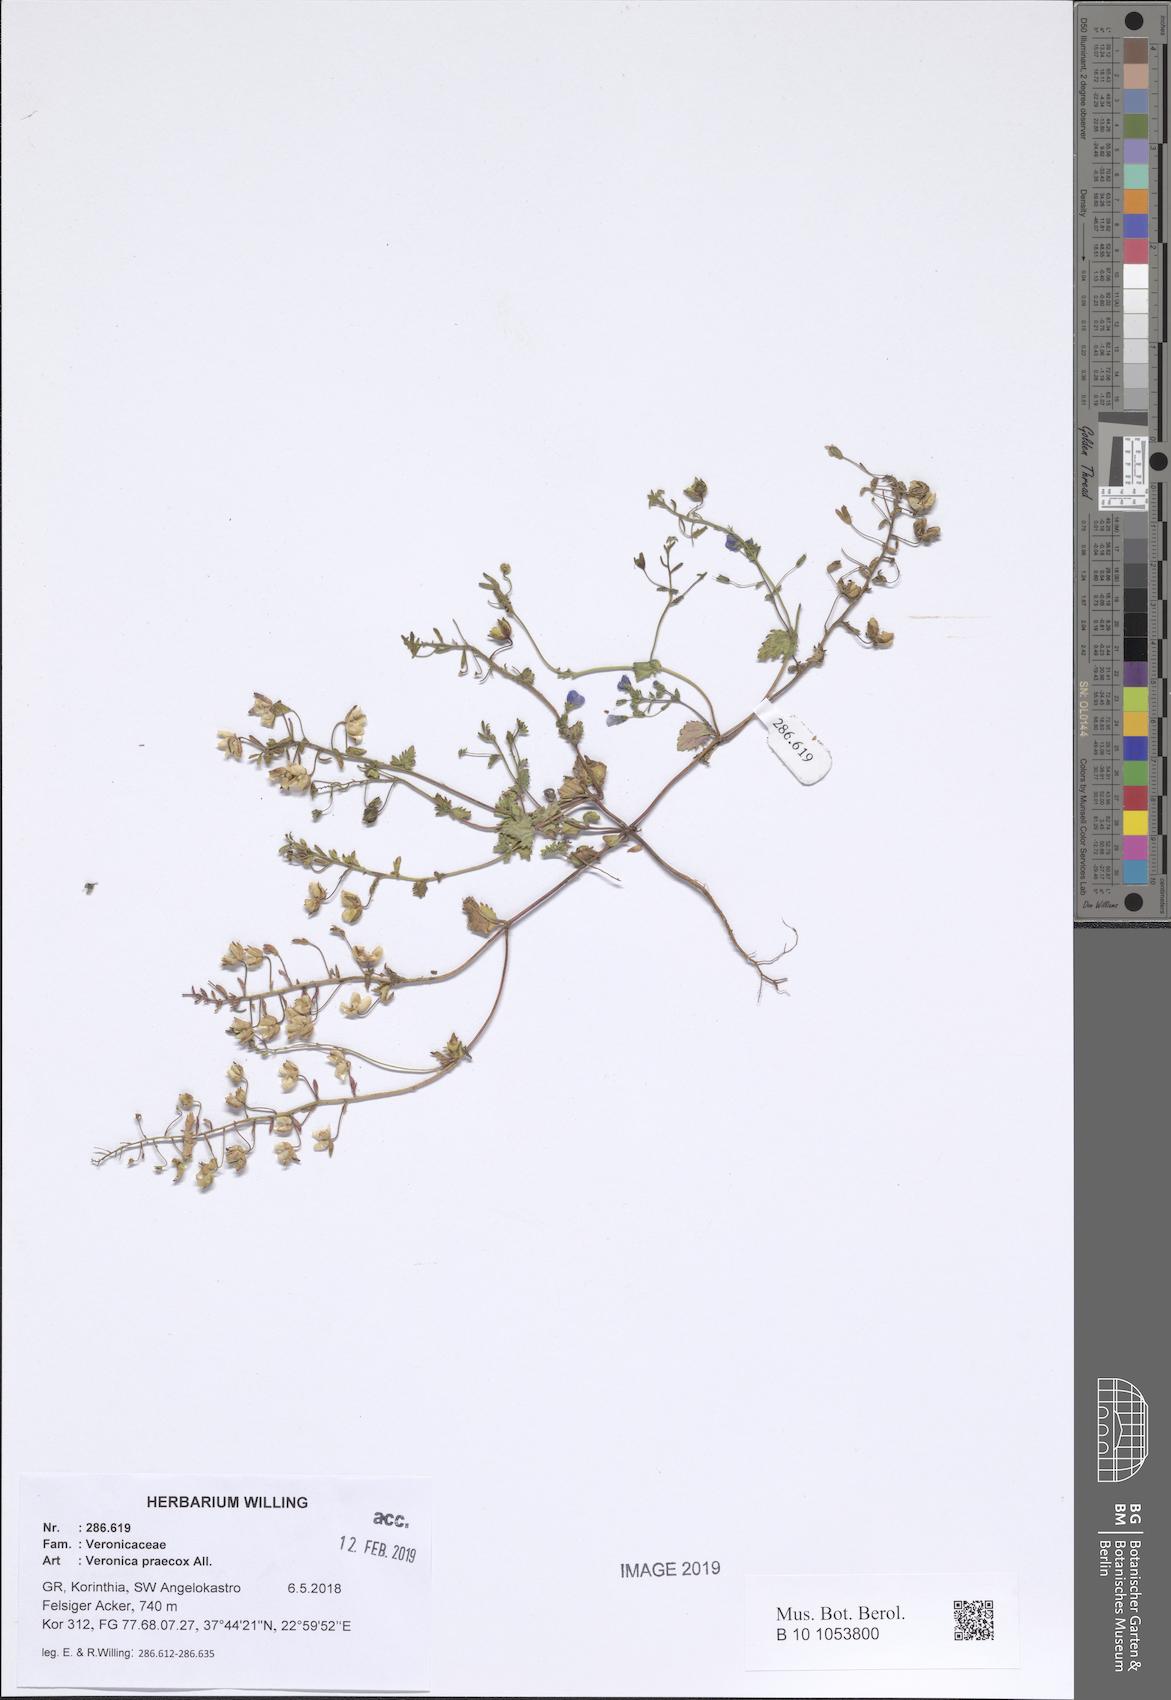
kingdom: Plantae
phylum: Tracheophyta
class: Magnoliopsida
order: Lamiales
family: Plantaginaceae
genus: Veronica
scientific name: Veronica praecox
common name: Breckland speedwell
